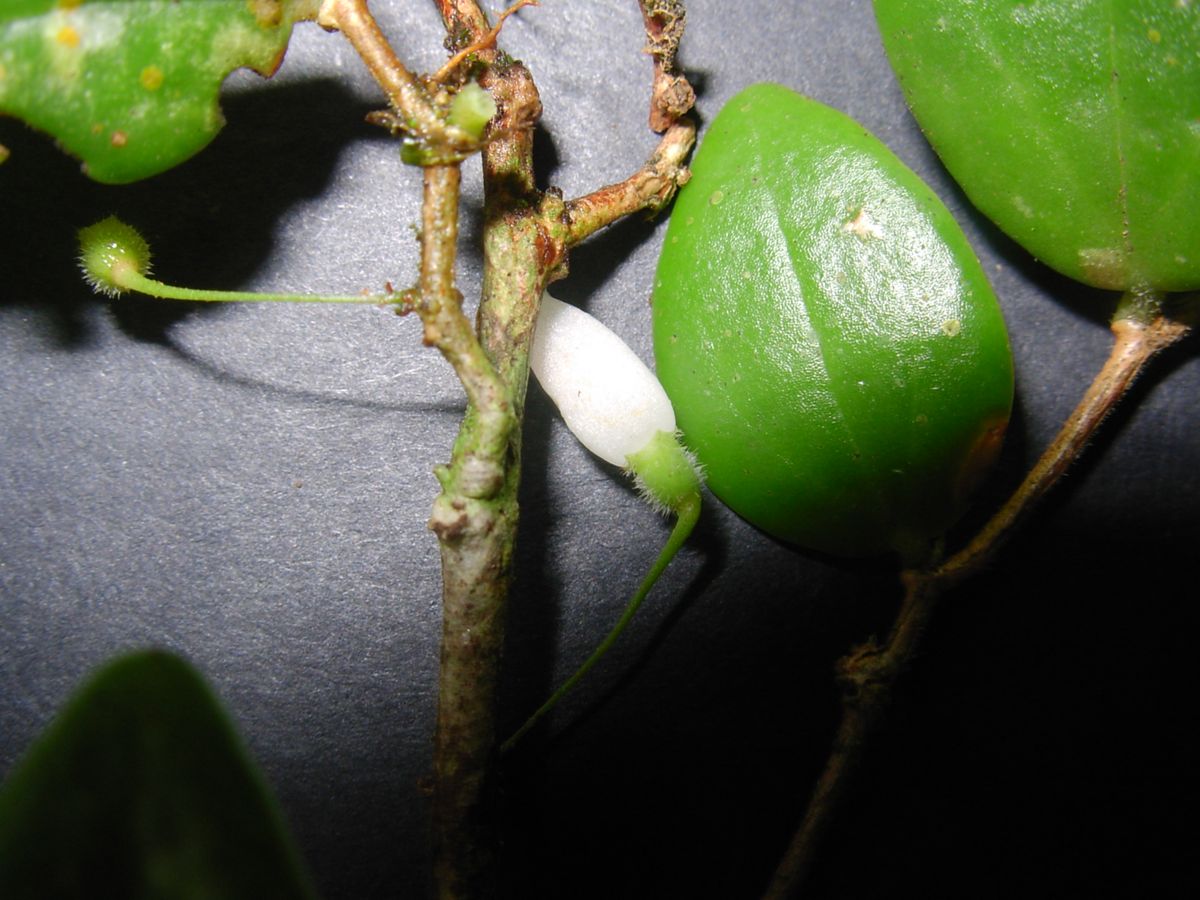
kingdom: Plantae
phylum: Tracheophyta
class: Magnoliopsida
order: Ericales
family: Ericaceae
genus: Sphyrospermum
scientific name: Sphyrospermum cordifolium
